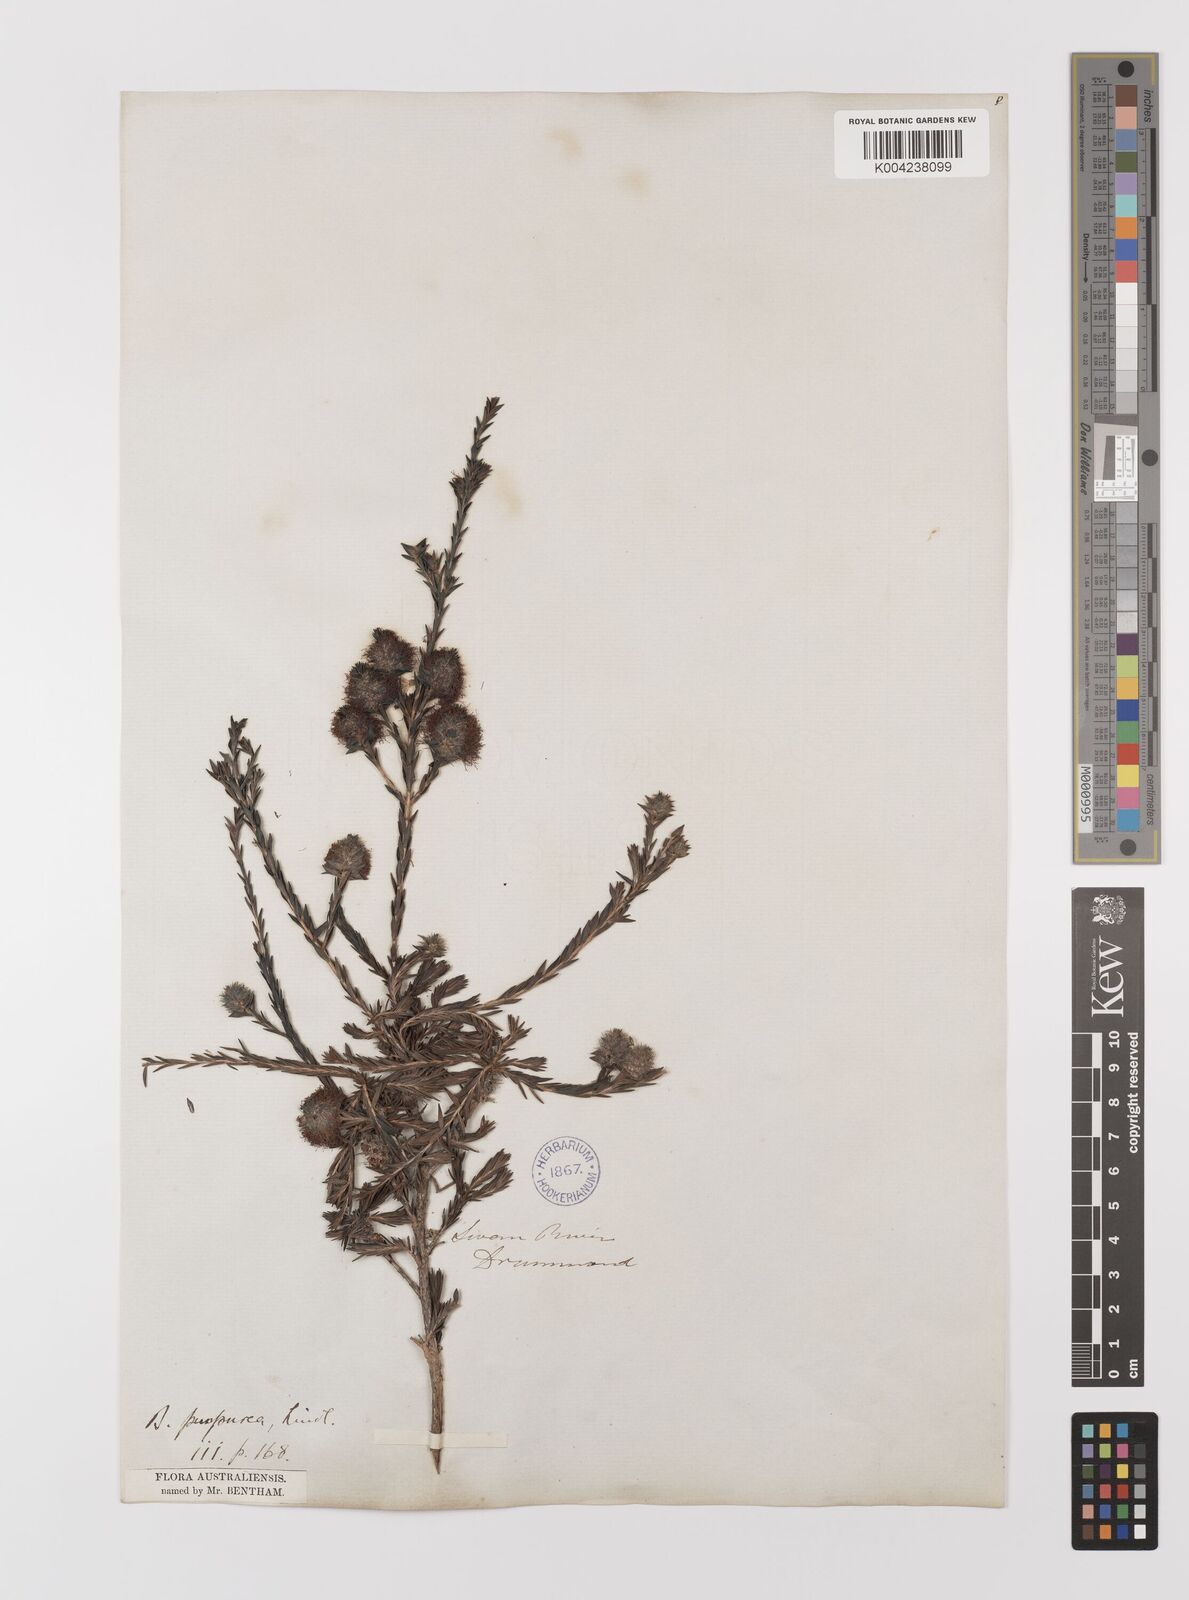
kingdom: Plantae
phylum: Tracheophyta
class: Magnoliopsida
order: Myrtales
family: Myrtaceae
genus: Melaleuca
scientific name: Melaleuca purpurea
